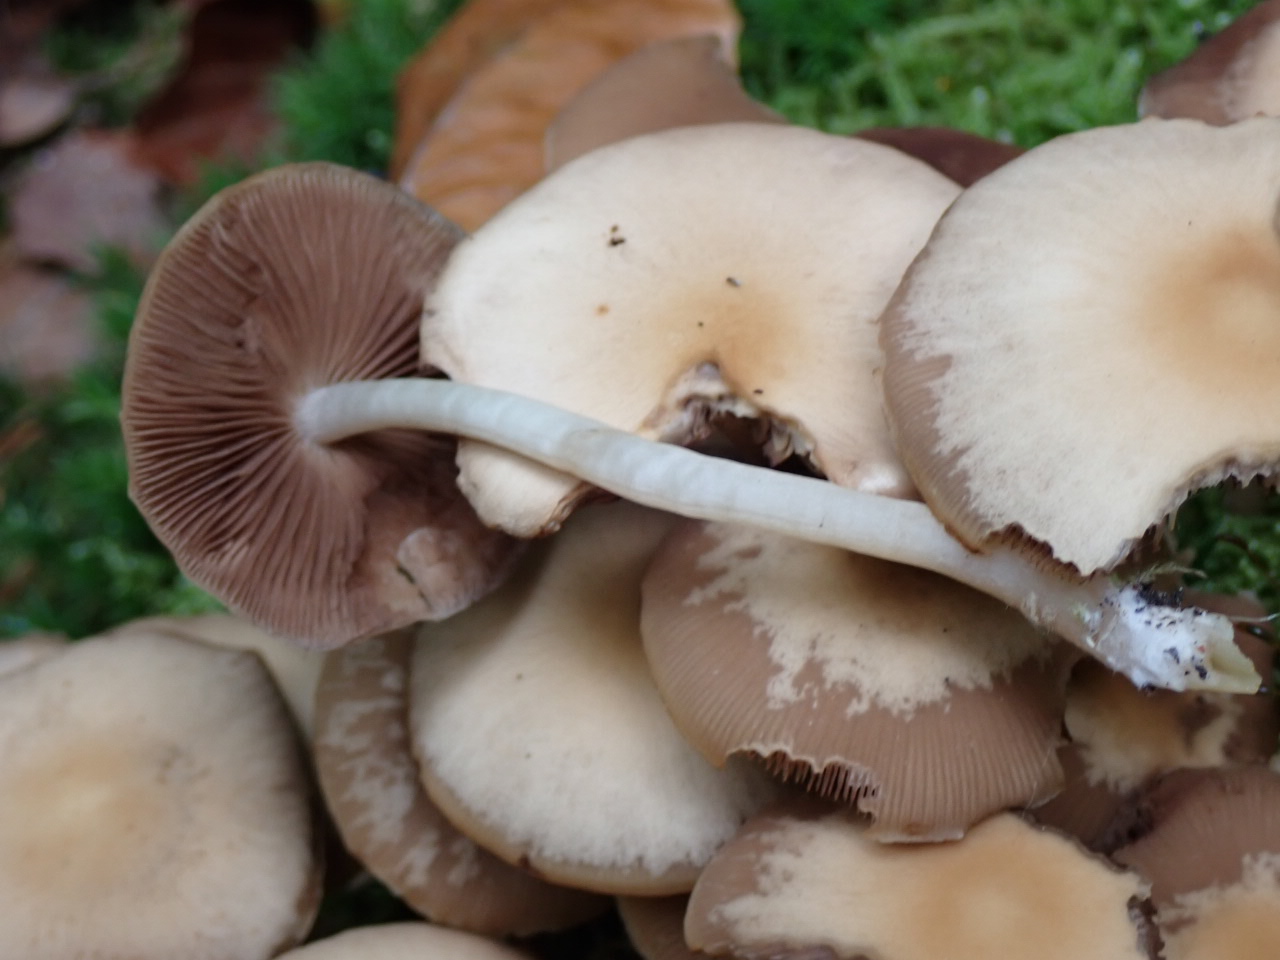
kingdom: Fungi
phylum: Basidiomycota
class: Agaricomycetes
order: Agaricales
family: Psathyrellaceae
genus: Psathyrella
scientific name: Psathyrella
